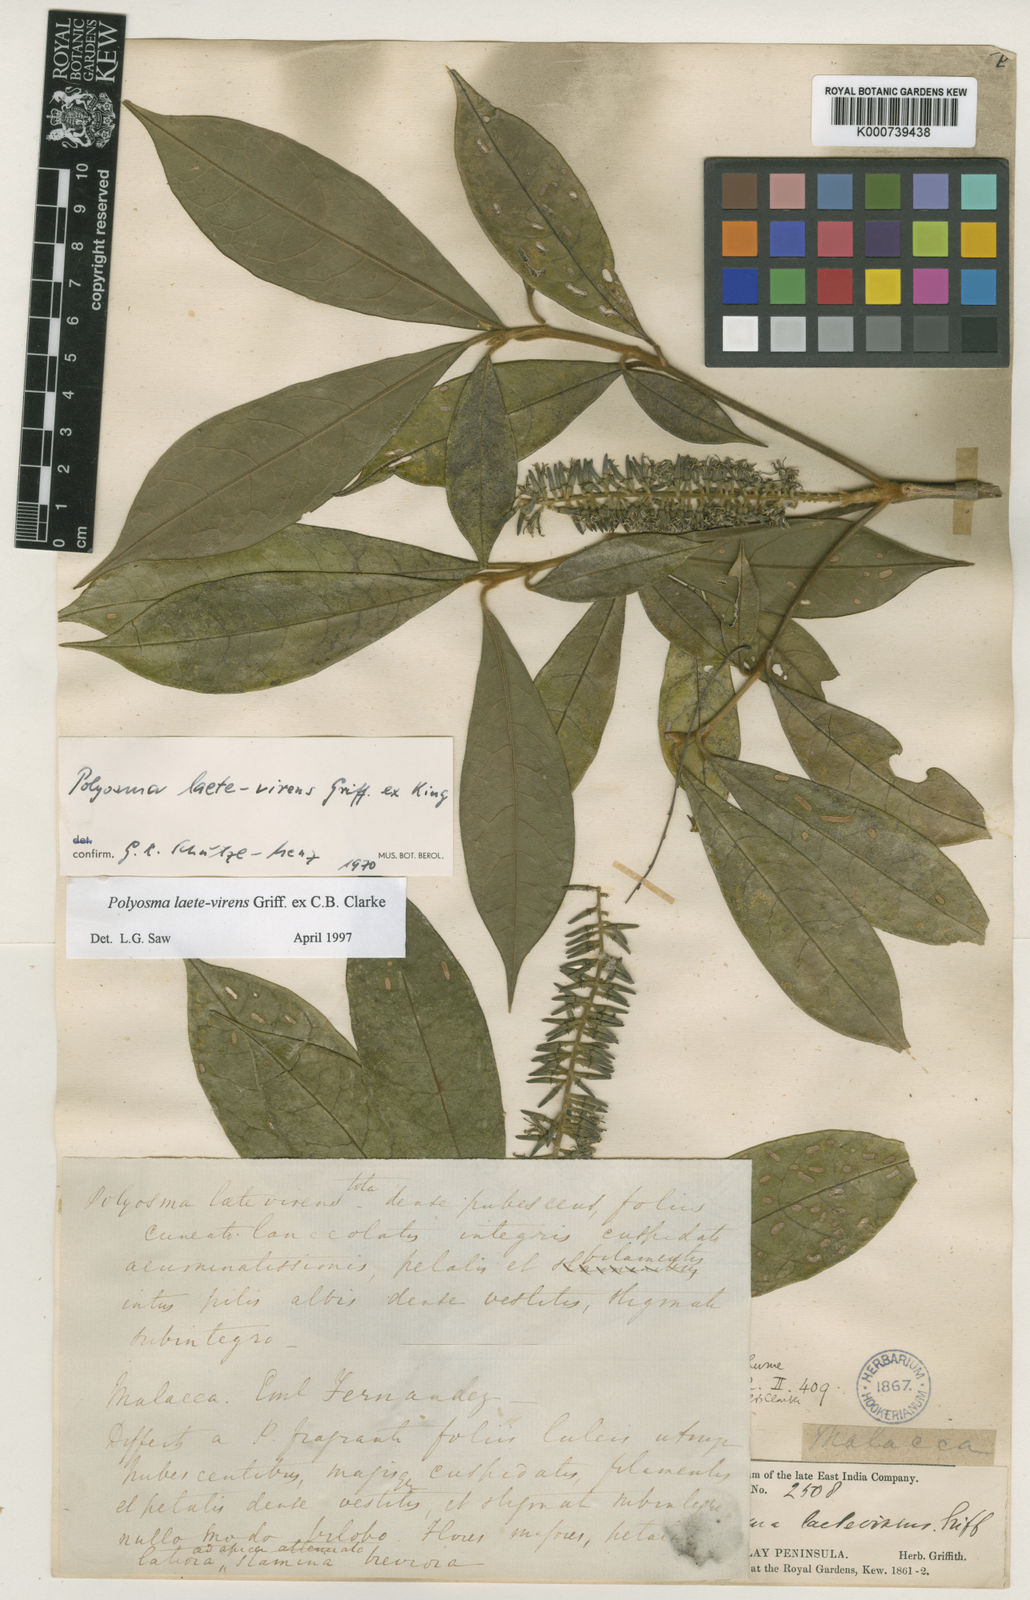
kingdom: Plantae
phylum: Tracheophyta
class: Magnoliopsida
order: Escalloniales
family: Escalloniaceae
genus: Polyosma
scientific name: Polyosma
